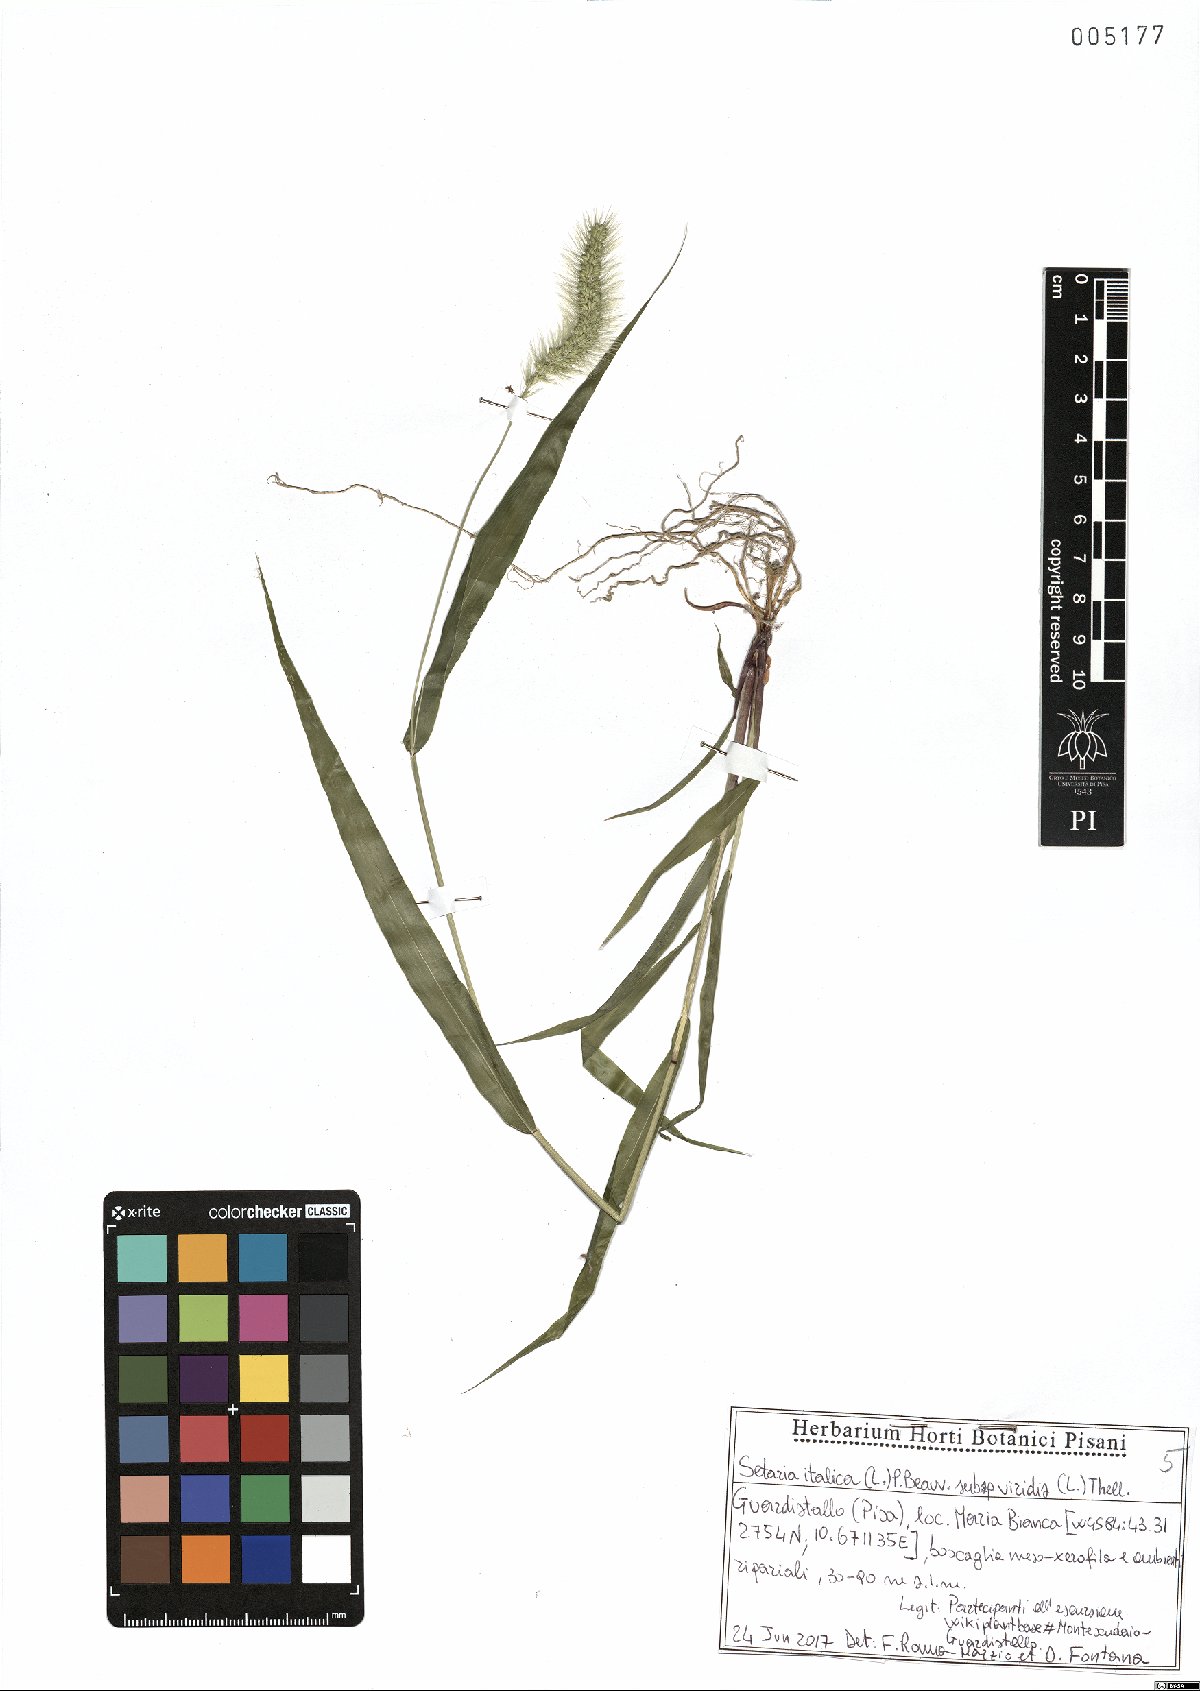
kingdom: Plantae
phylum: Tracheophyta
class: Liliopsida
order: Poales
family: Poaceae
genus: Setaria
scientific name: Setaria viridis
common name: Green bristlegrass
